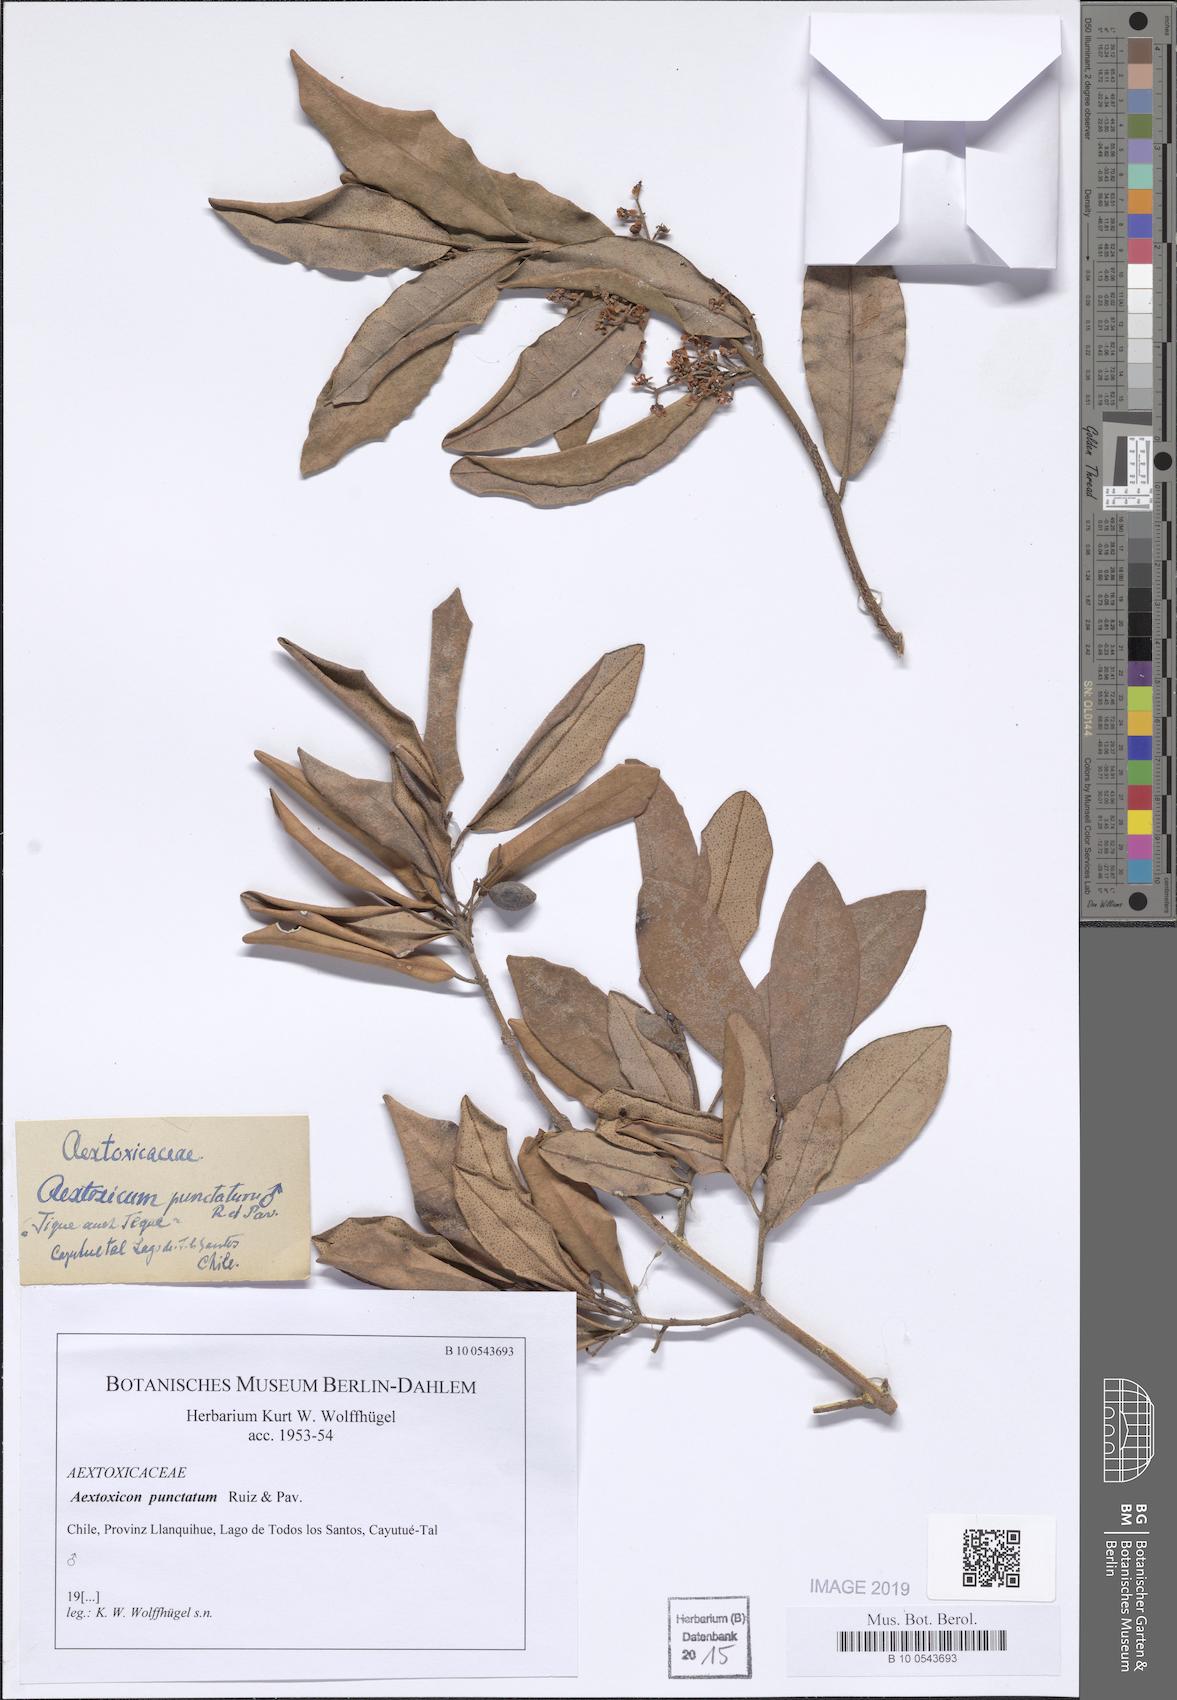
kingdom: Plantae
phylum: Tracheophyta
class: Magnoliopsida
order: Berberidopsidales
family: Aextoxicaceae
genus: Aextoxicon
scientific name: Aextoxicon punctatum
